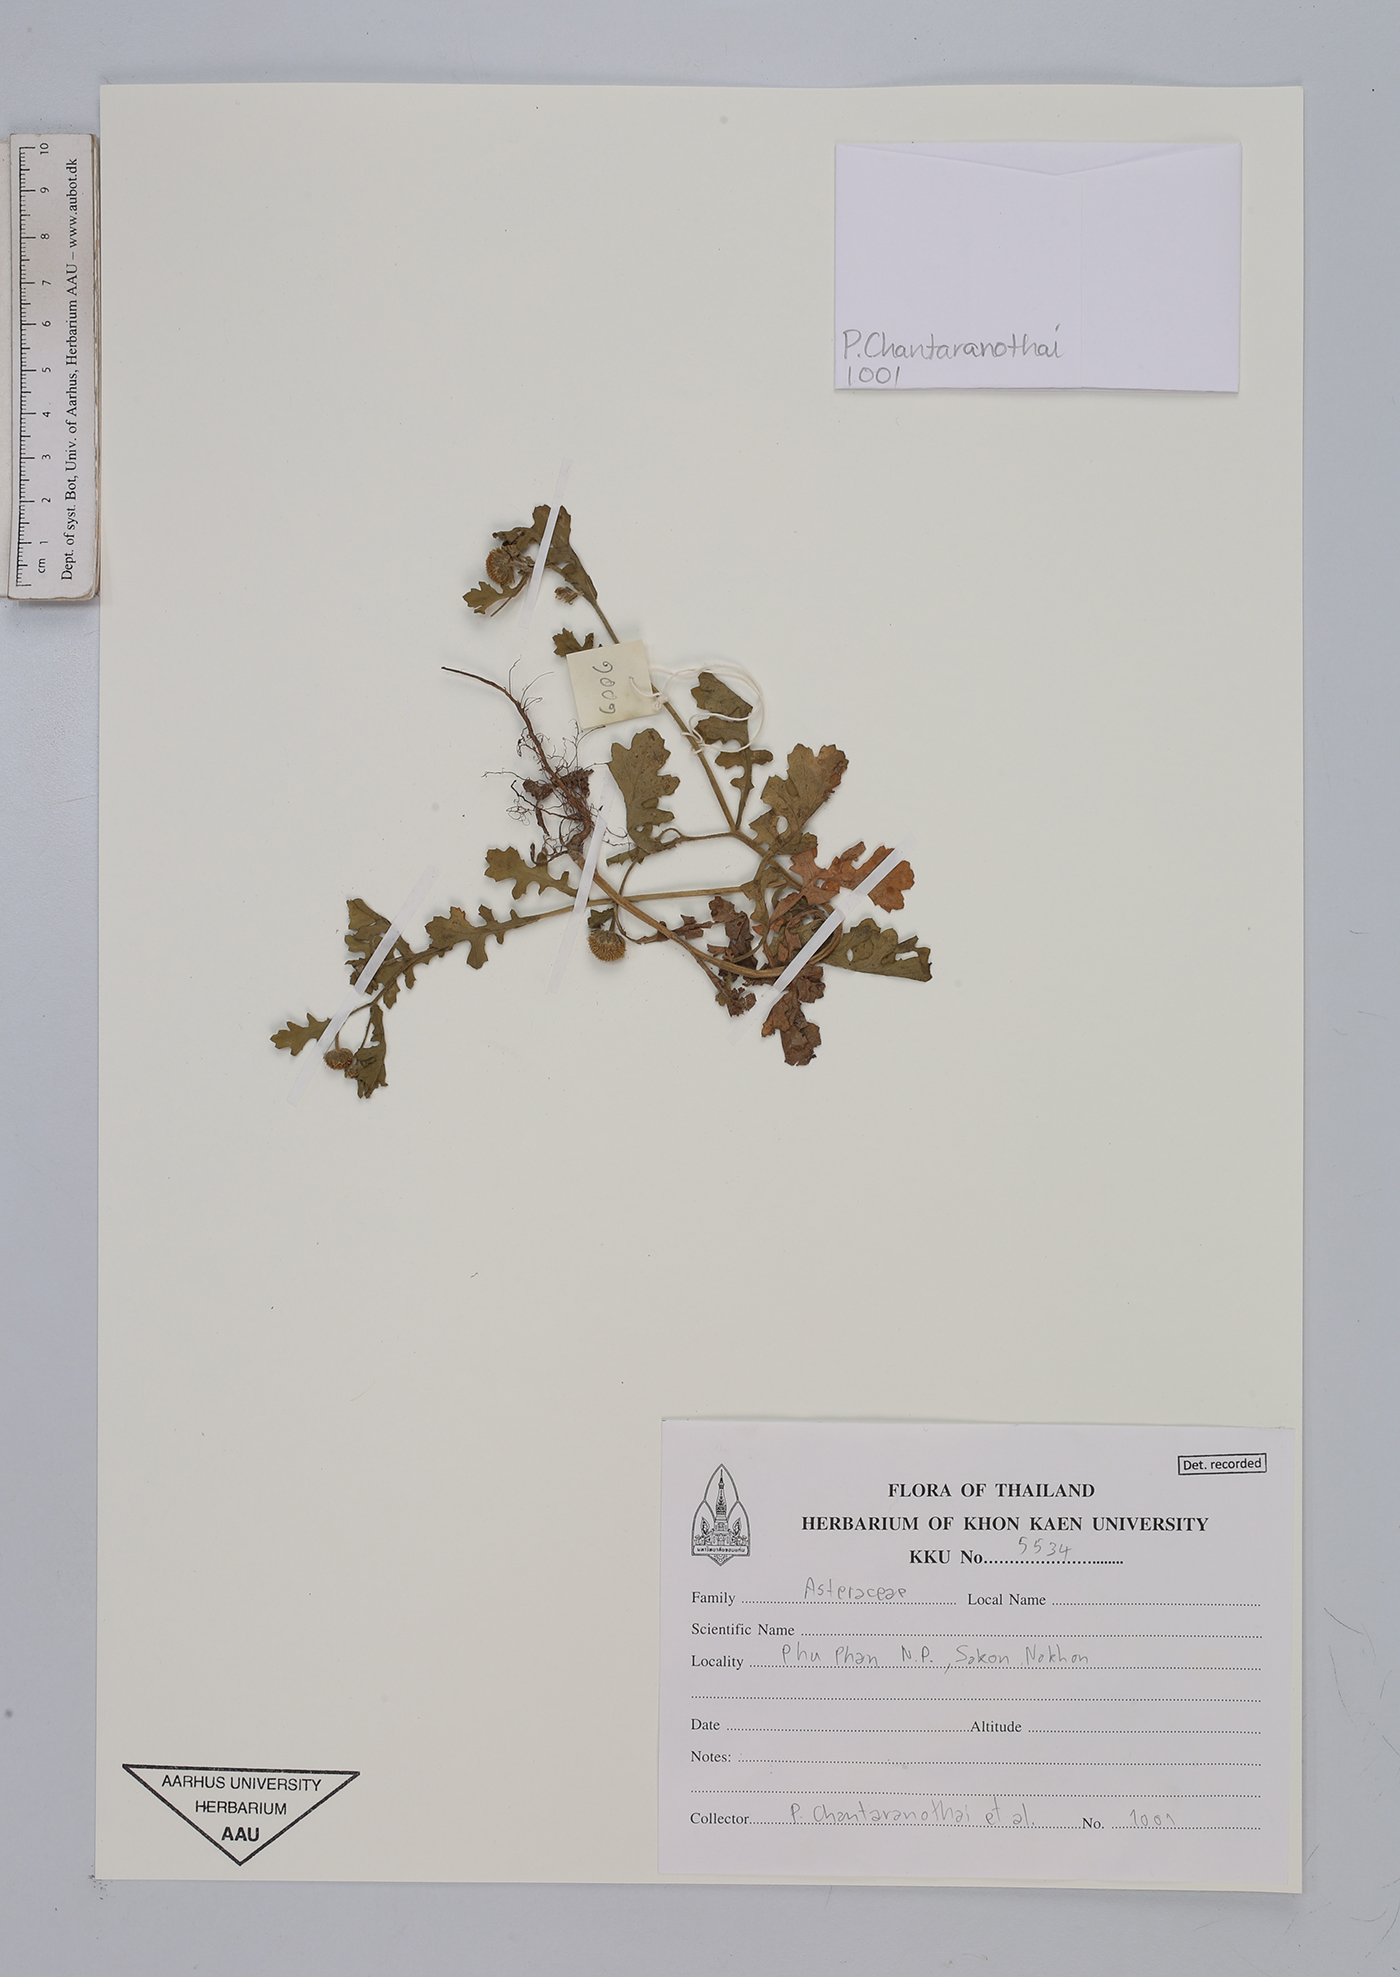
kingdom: Plantae
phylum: Tracheophyta
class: Magnoliopsida
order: Asterales
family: Asteraceae
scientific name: Asteraceae
